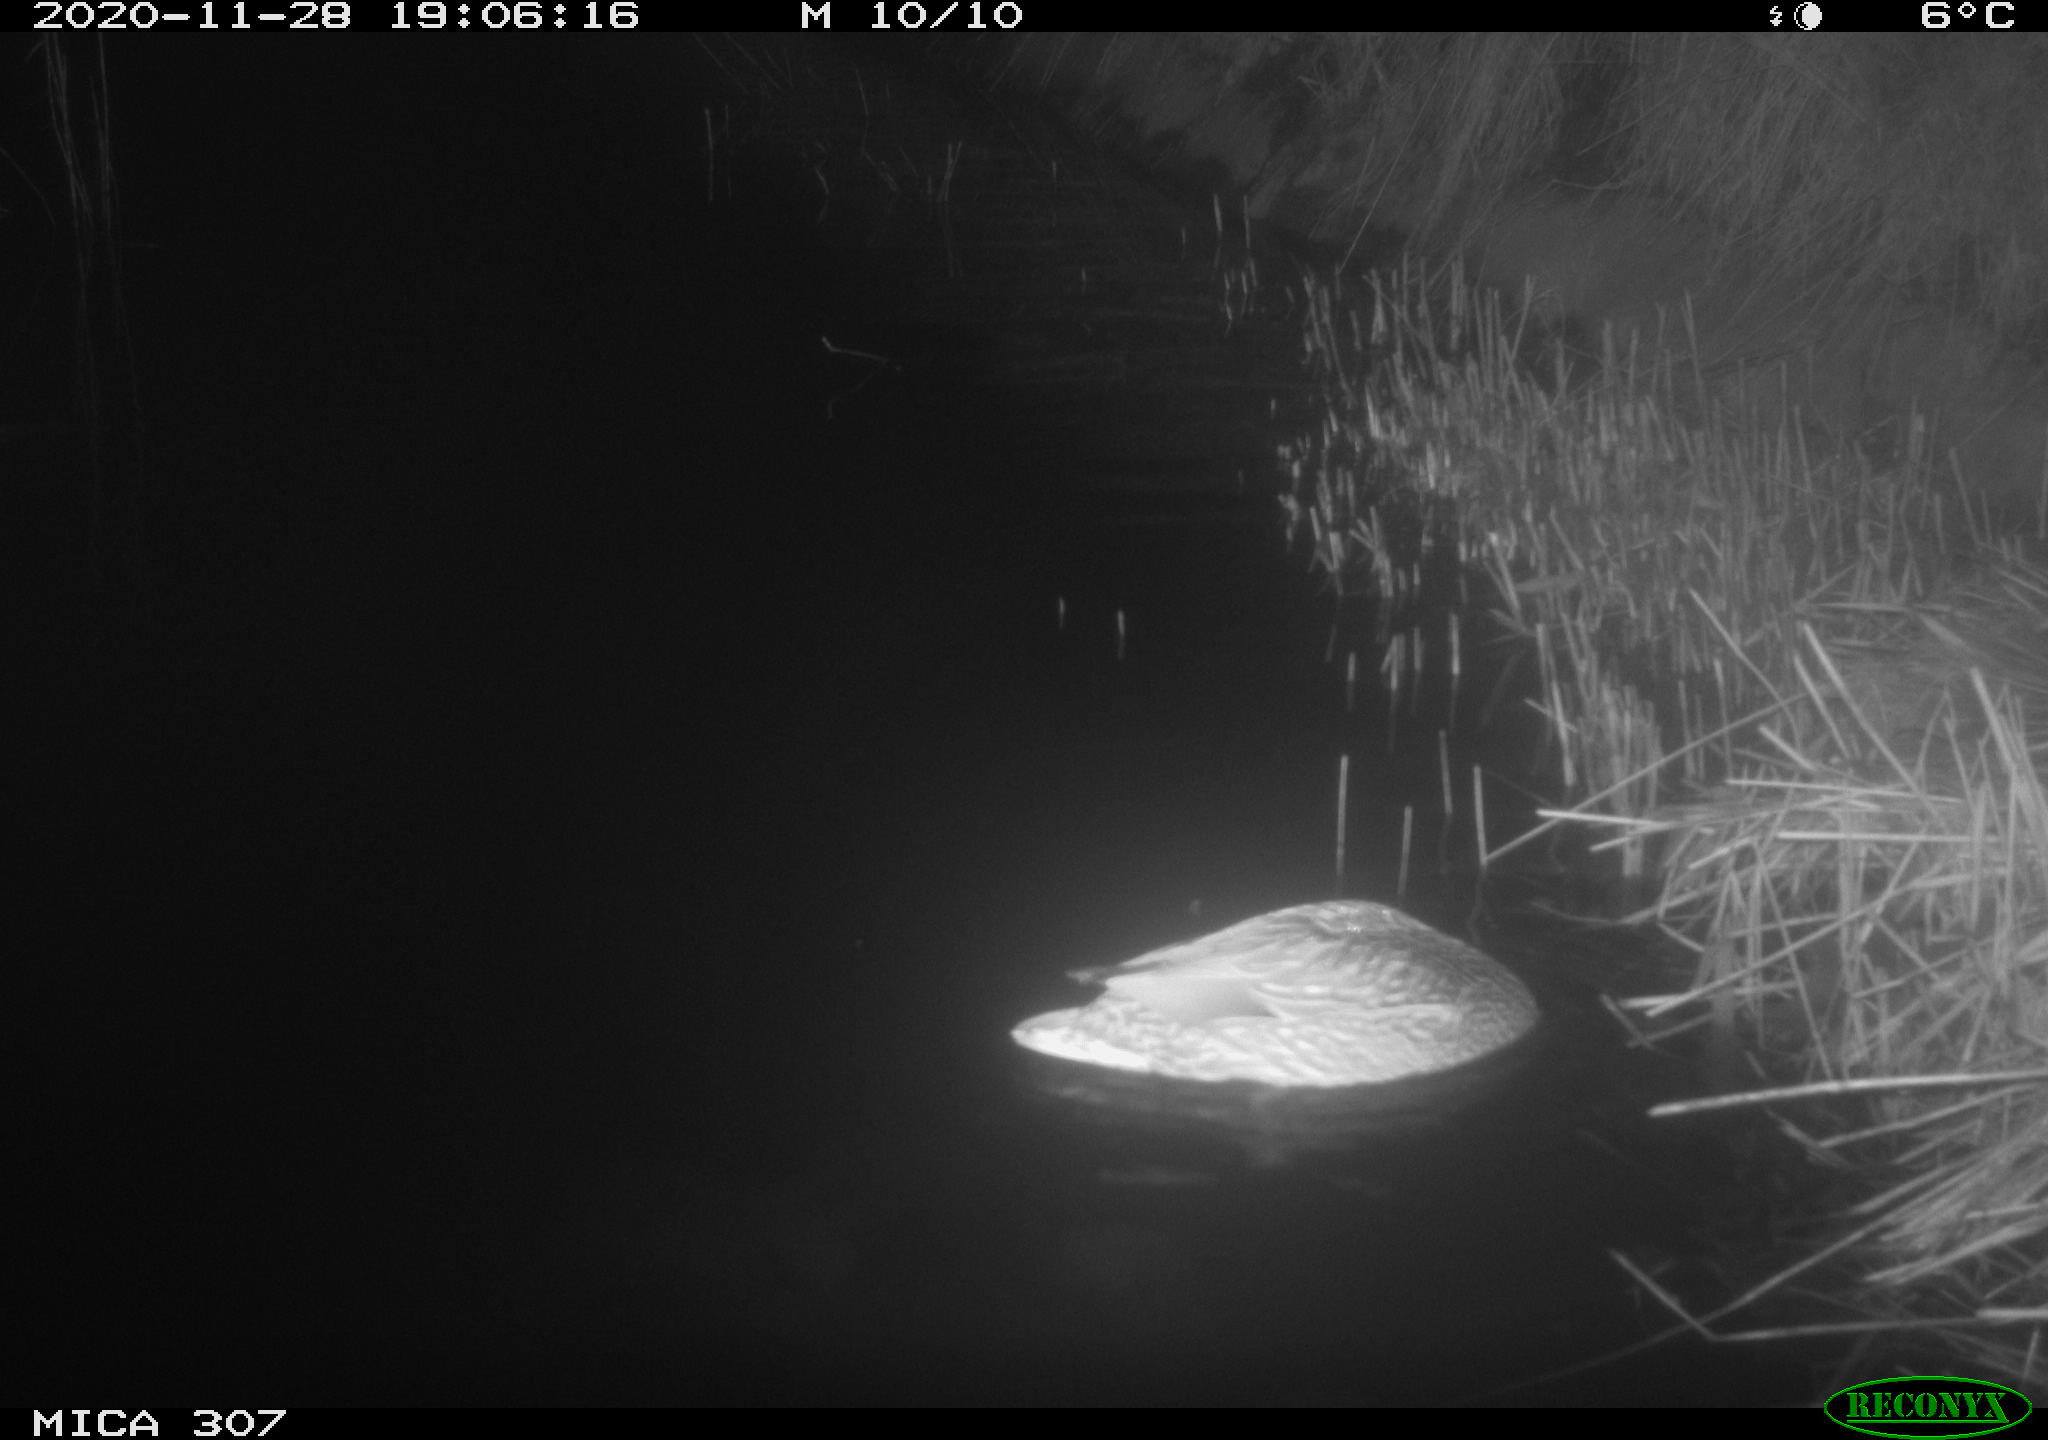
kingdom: Animalia
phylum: Chordata
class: Aves
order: Anseriformes
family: Anatidae
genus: Anas
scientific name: Anas platyrhynchos
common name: Mallard
